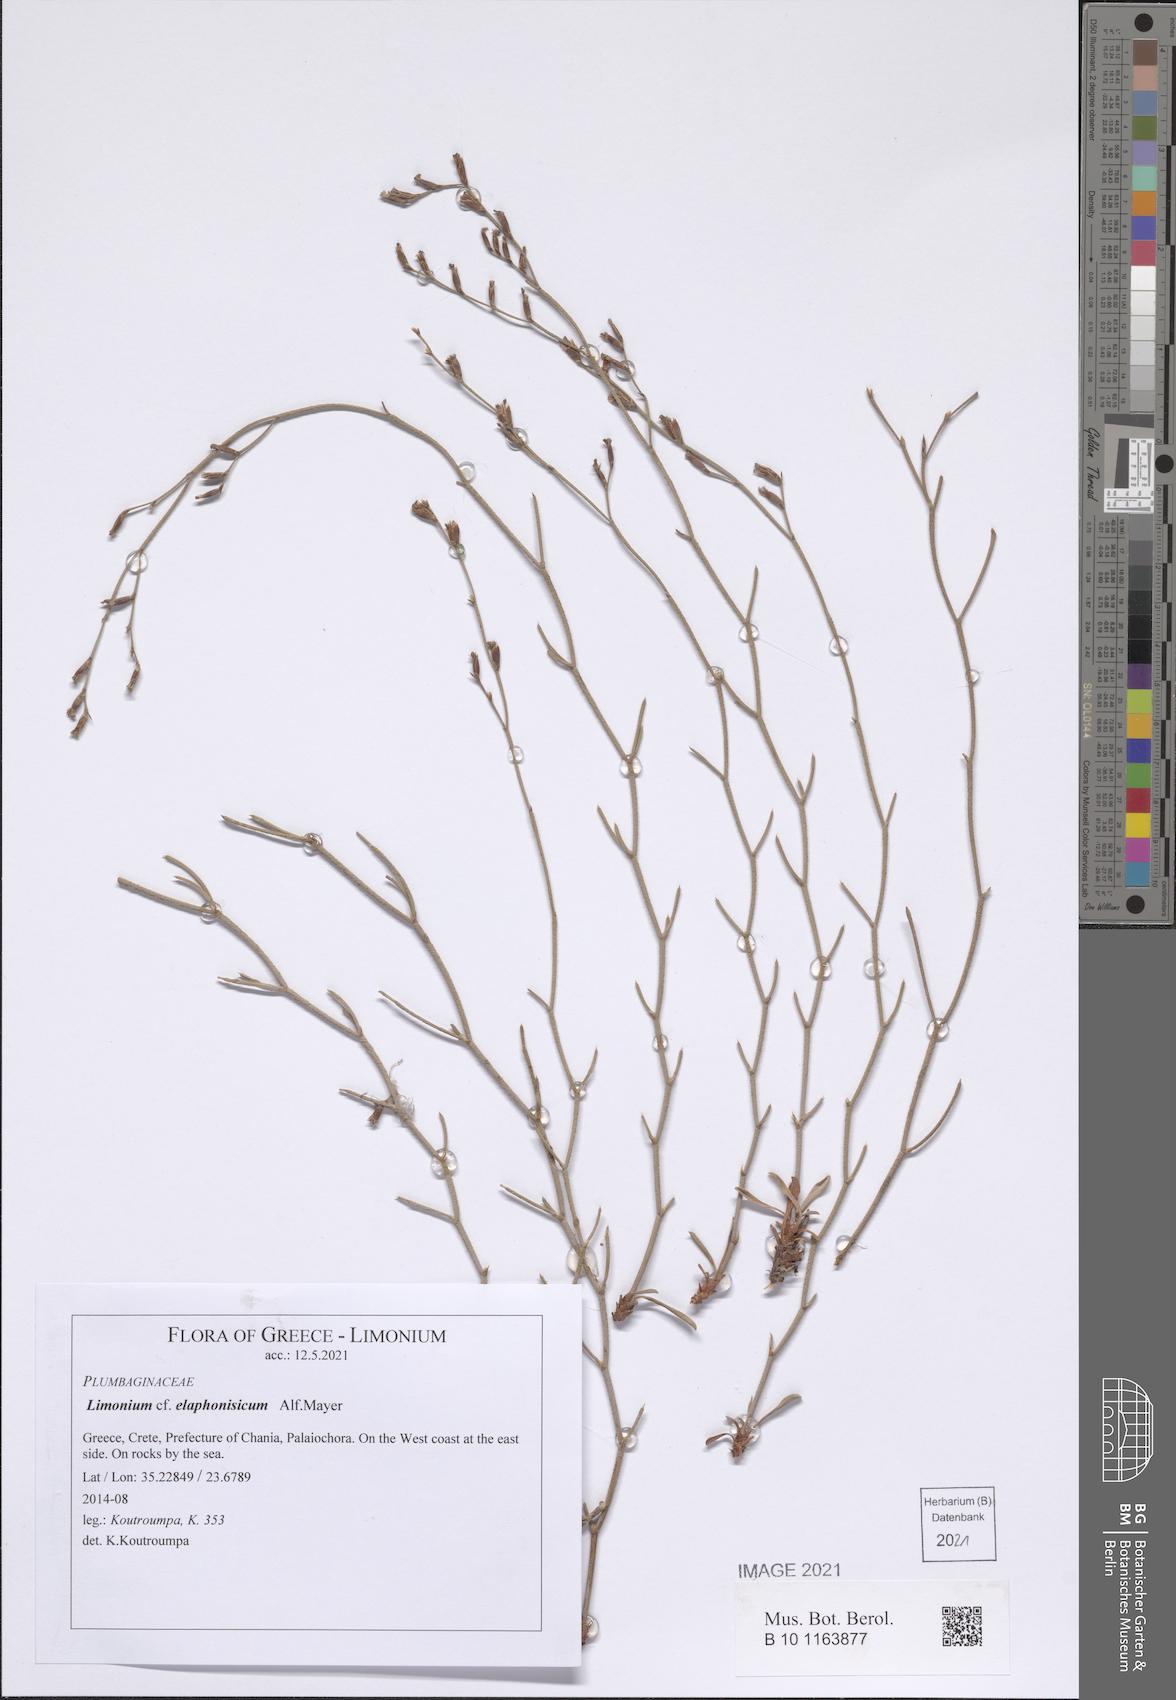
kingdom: Plantae
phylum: Tracheophyta
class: Magnoliopsida
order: Caryophyllales
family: Plumbaginaceae
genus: Limonium
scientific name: Limonium elaphonisicum
